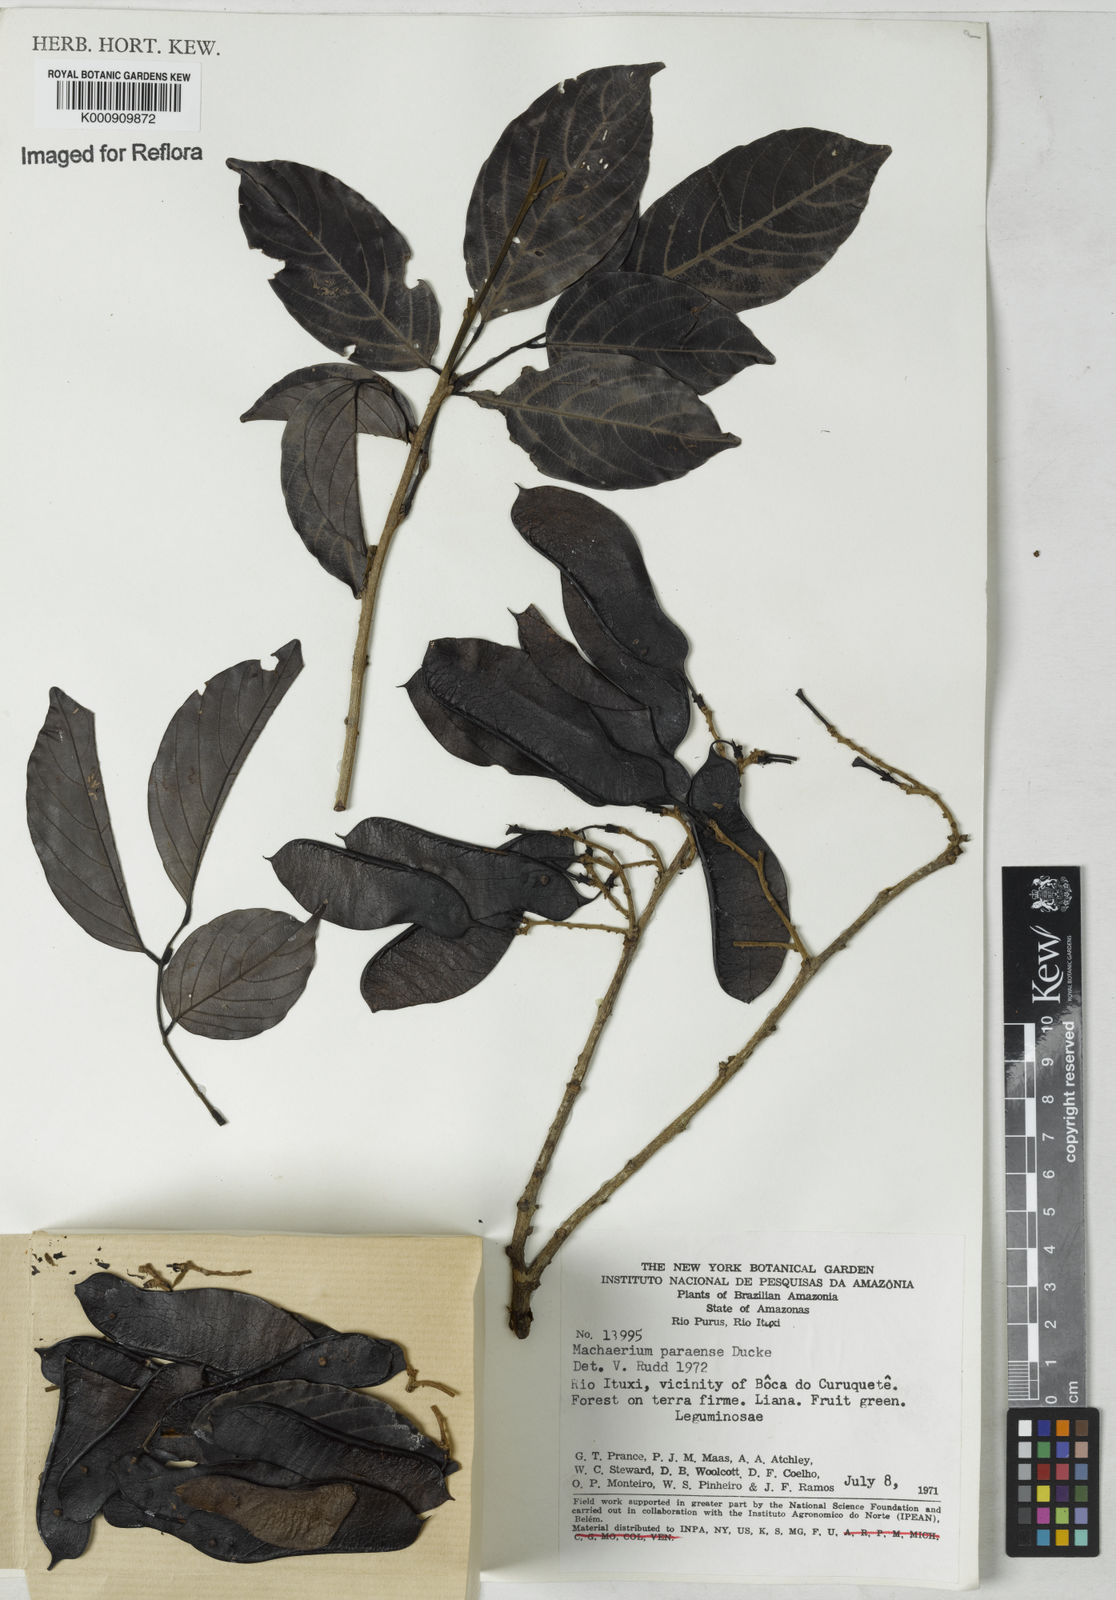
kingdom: Plantae
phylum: Tracheophyta
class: Magnoliopsida
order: Fabales
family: Fabaceae
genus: Machaerium
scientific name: Machaerium paraense
